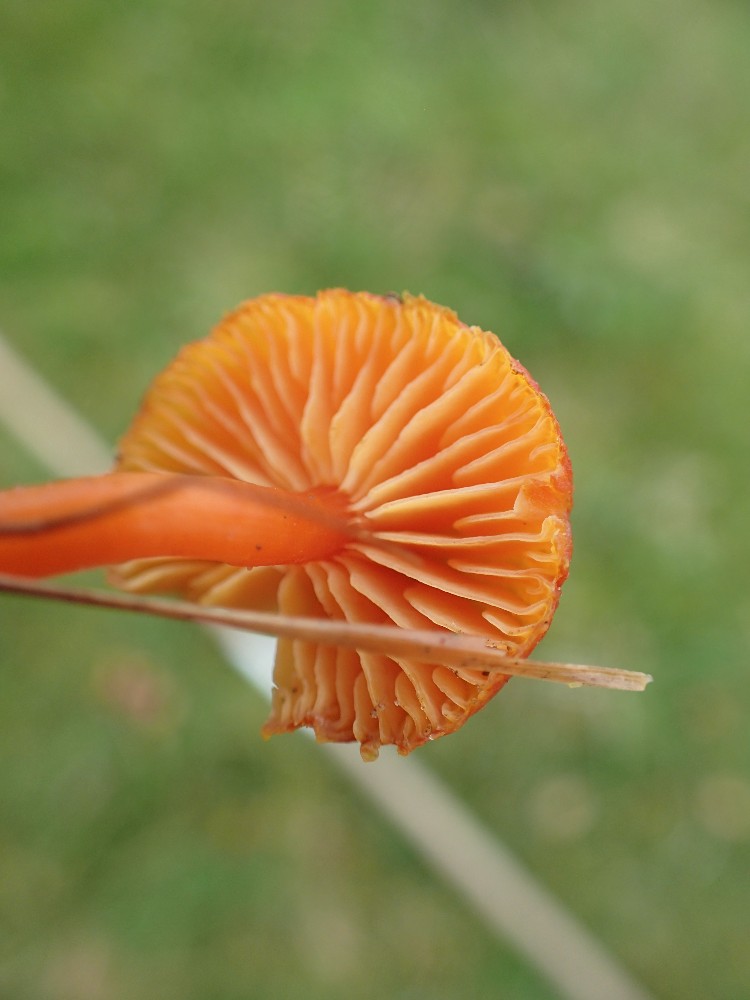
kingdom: Fungi
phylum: Basidiomycota
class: Agaricomycetes
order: Agaricales
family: Hygrophoraceae
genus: Hygrocybe
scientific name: Hygrocybe miniata
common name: mønje-vokshat
